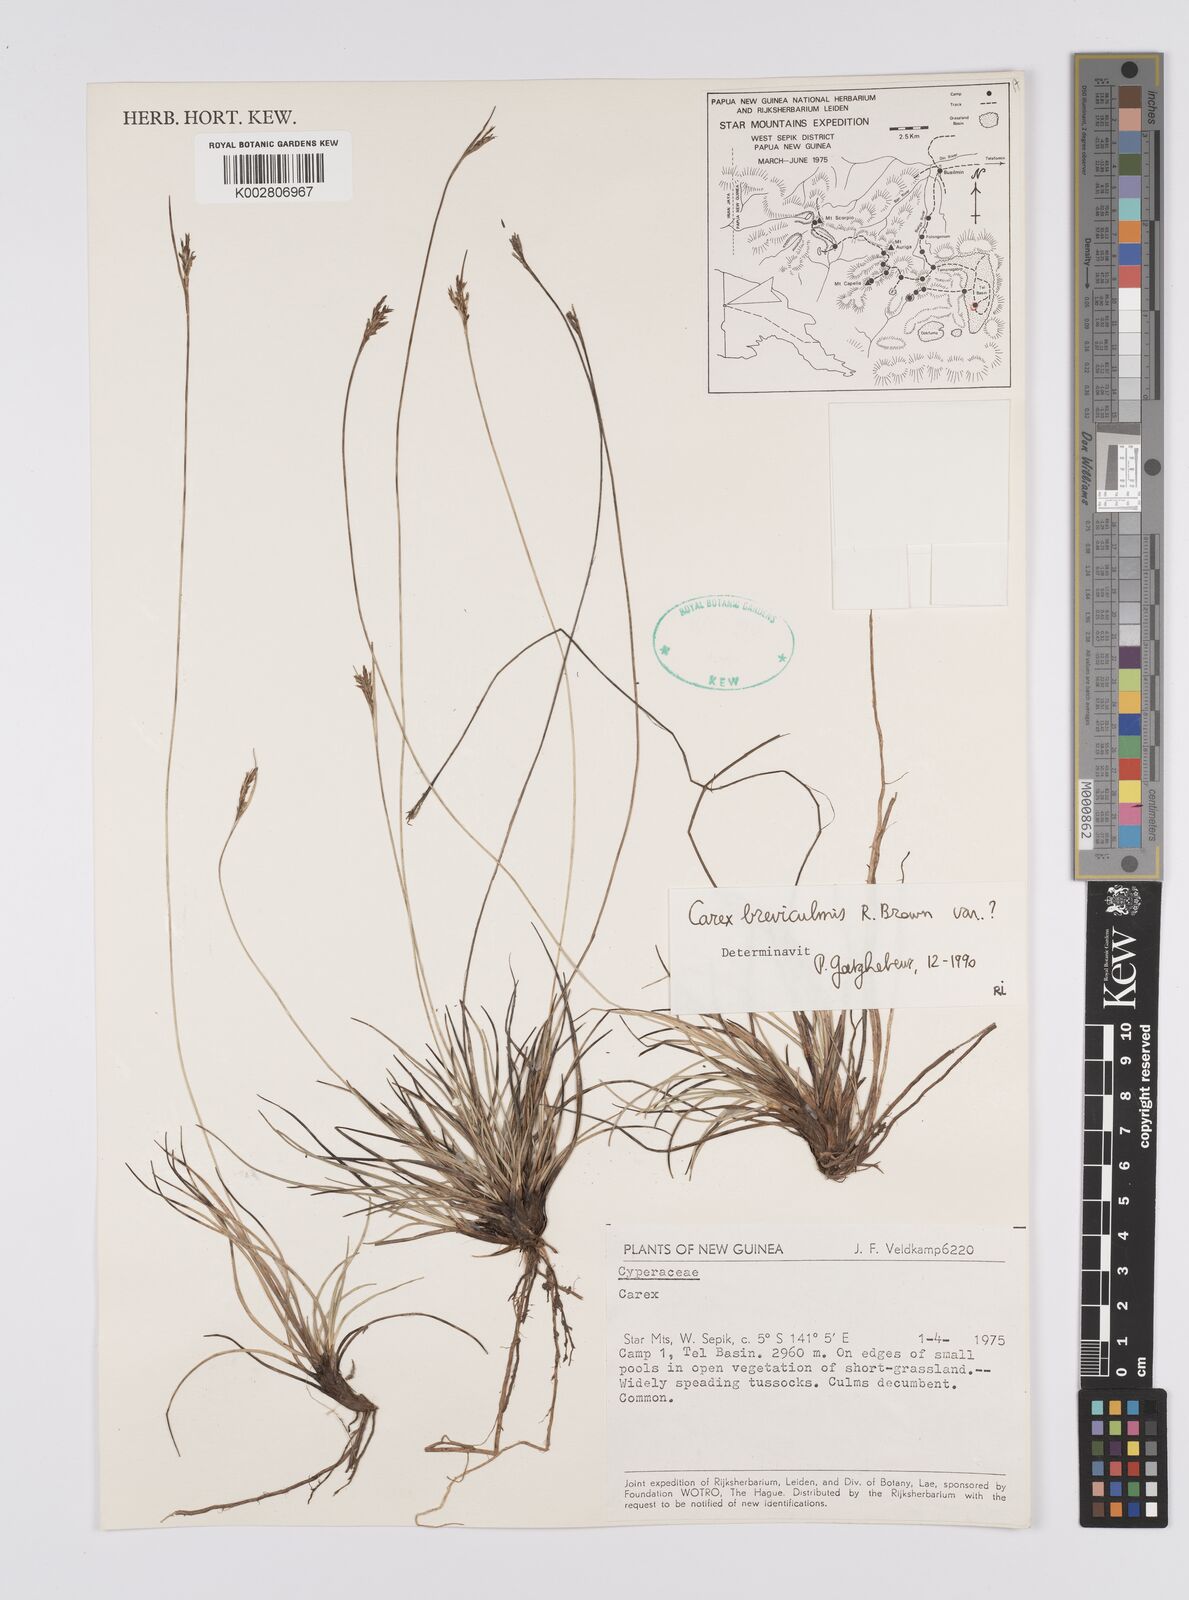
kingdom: Plantae
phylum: Tracheophyta
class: Liliopsida
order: Poales
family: Cyperaceae
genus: Carex
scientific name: Carex breviculmis
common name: Asian shortstem sedge
